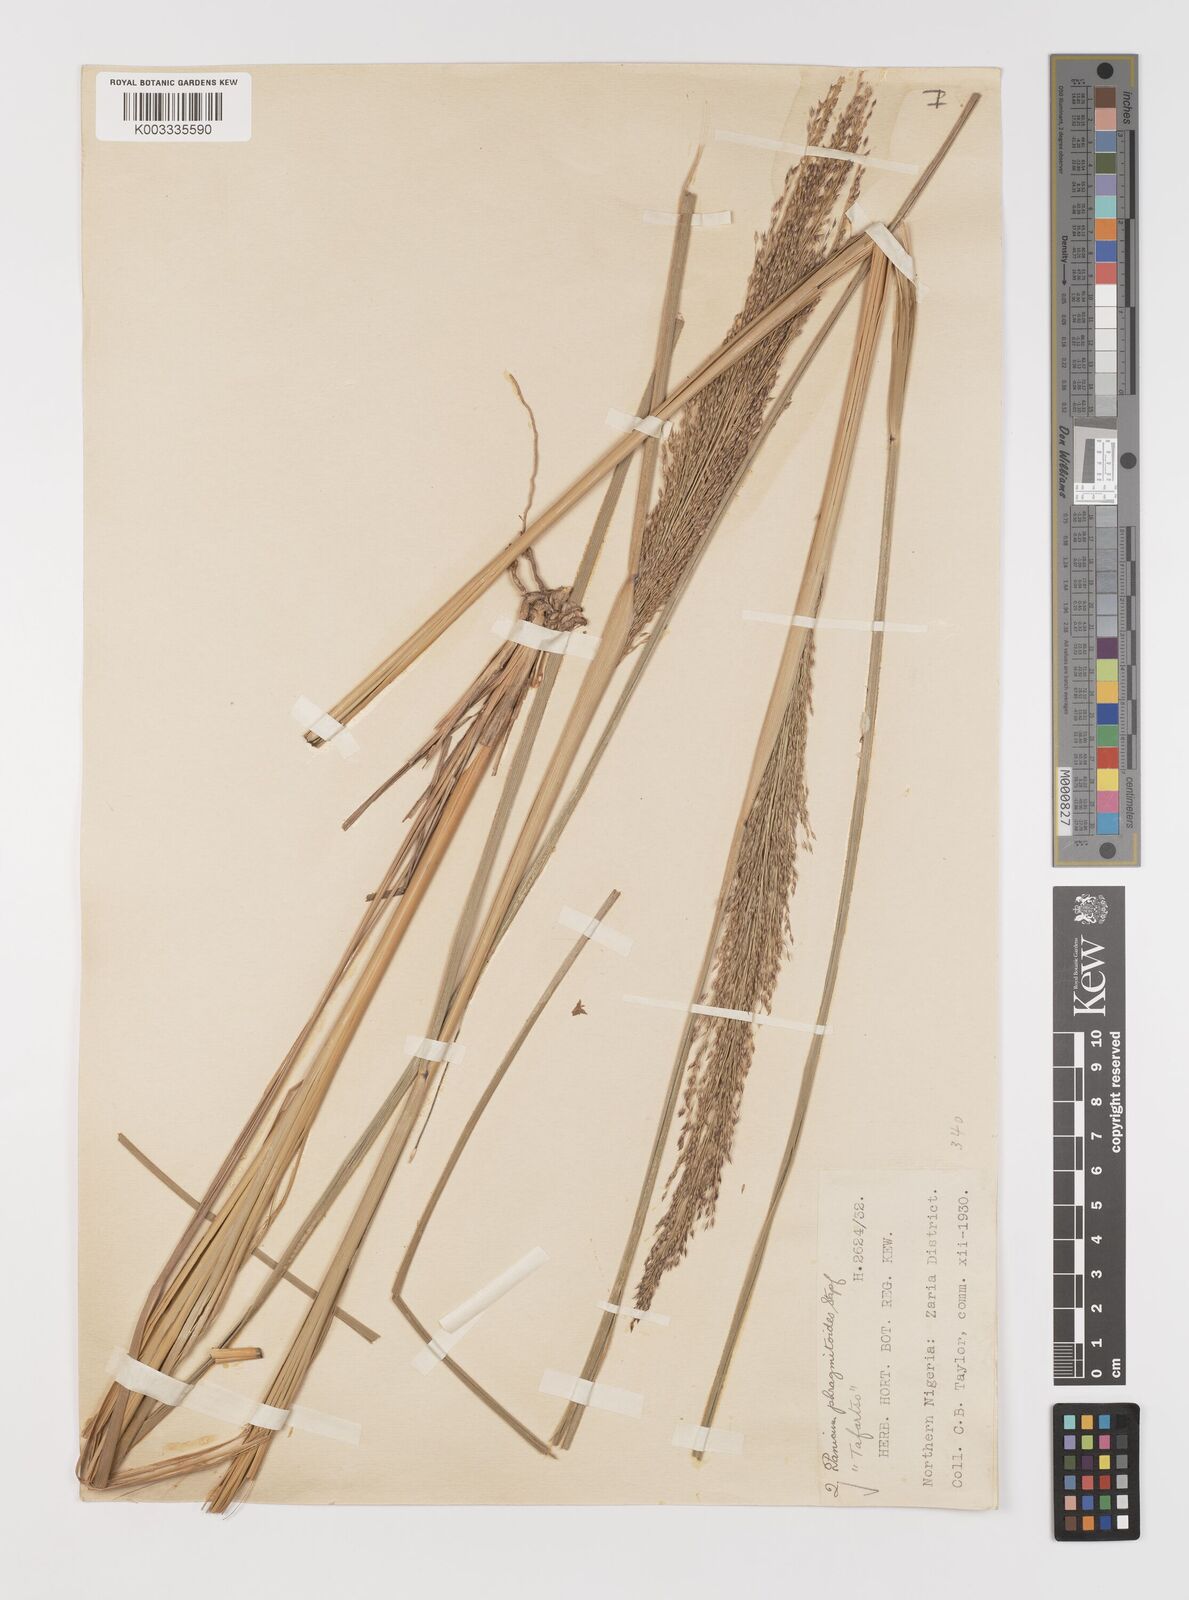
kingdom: Plantae
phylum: Tracheophyta
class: Liliopsida
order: Poales
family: Poaceae
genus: Panicum
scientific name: Panicum phragmitoides
